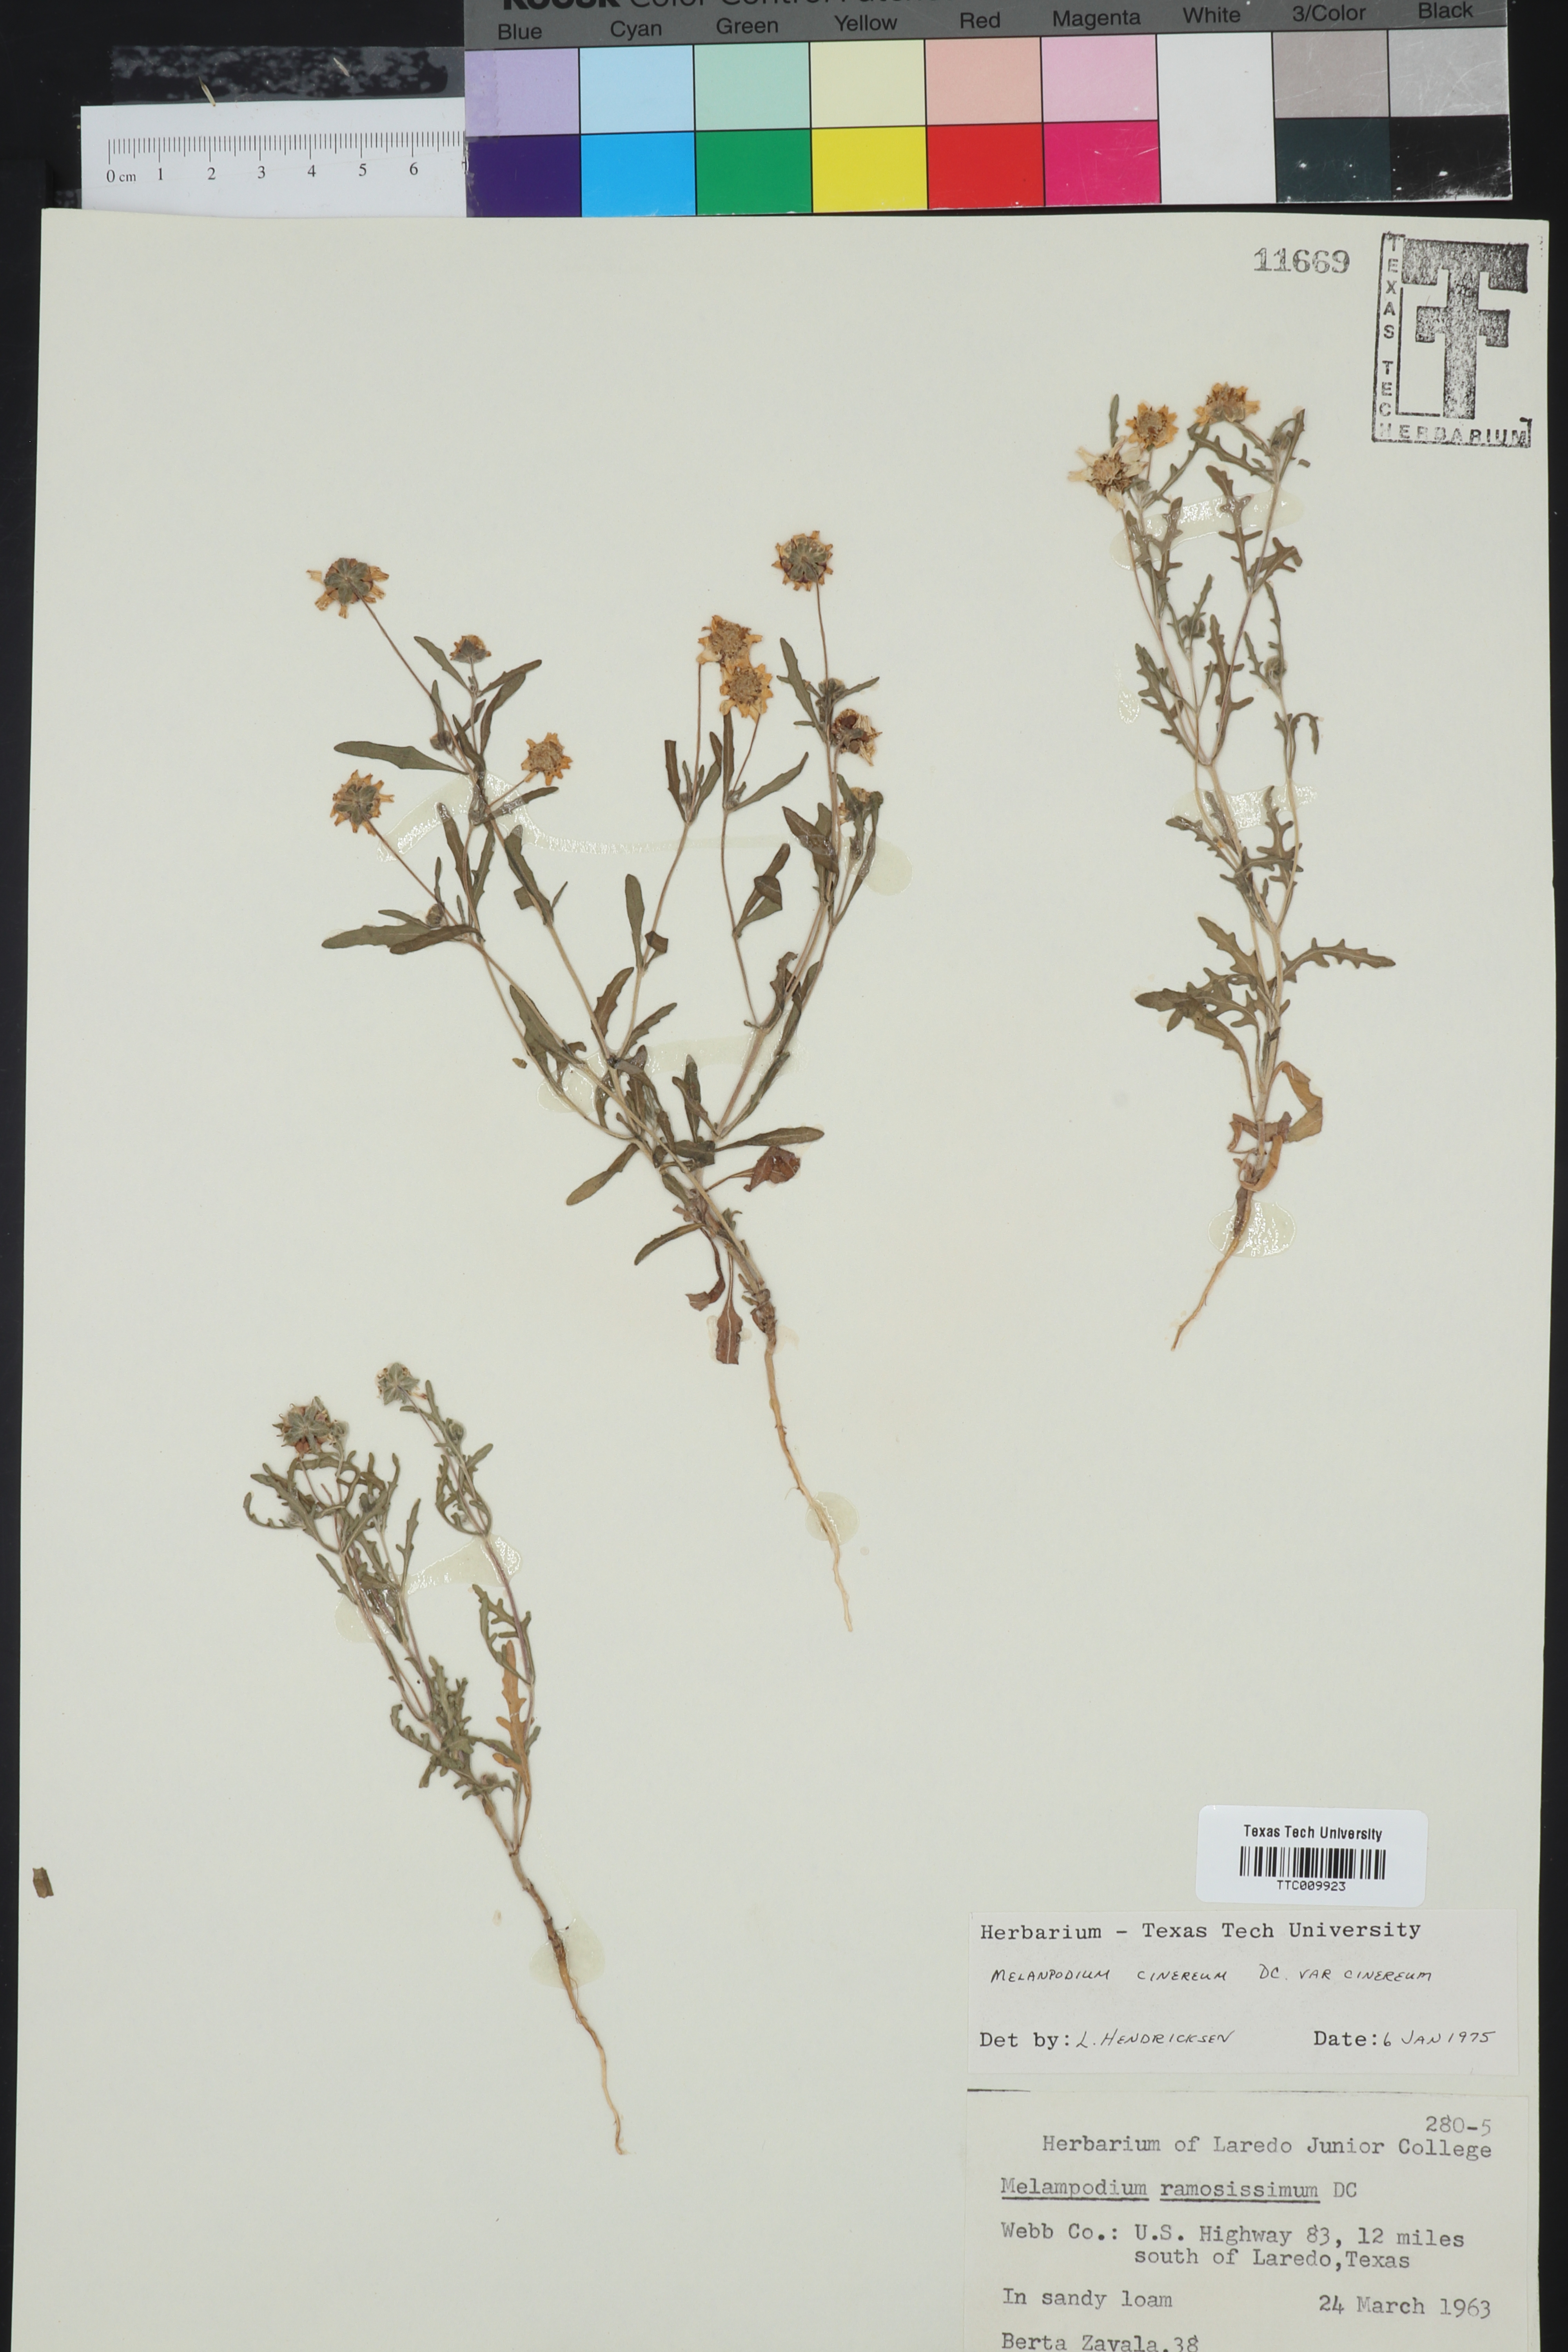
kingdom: Plantae
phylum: Tracheophyta
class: Magnoliopsida
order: Asterales
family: Asteraceae
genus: Melampodium
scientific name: Melampodium cinereum
